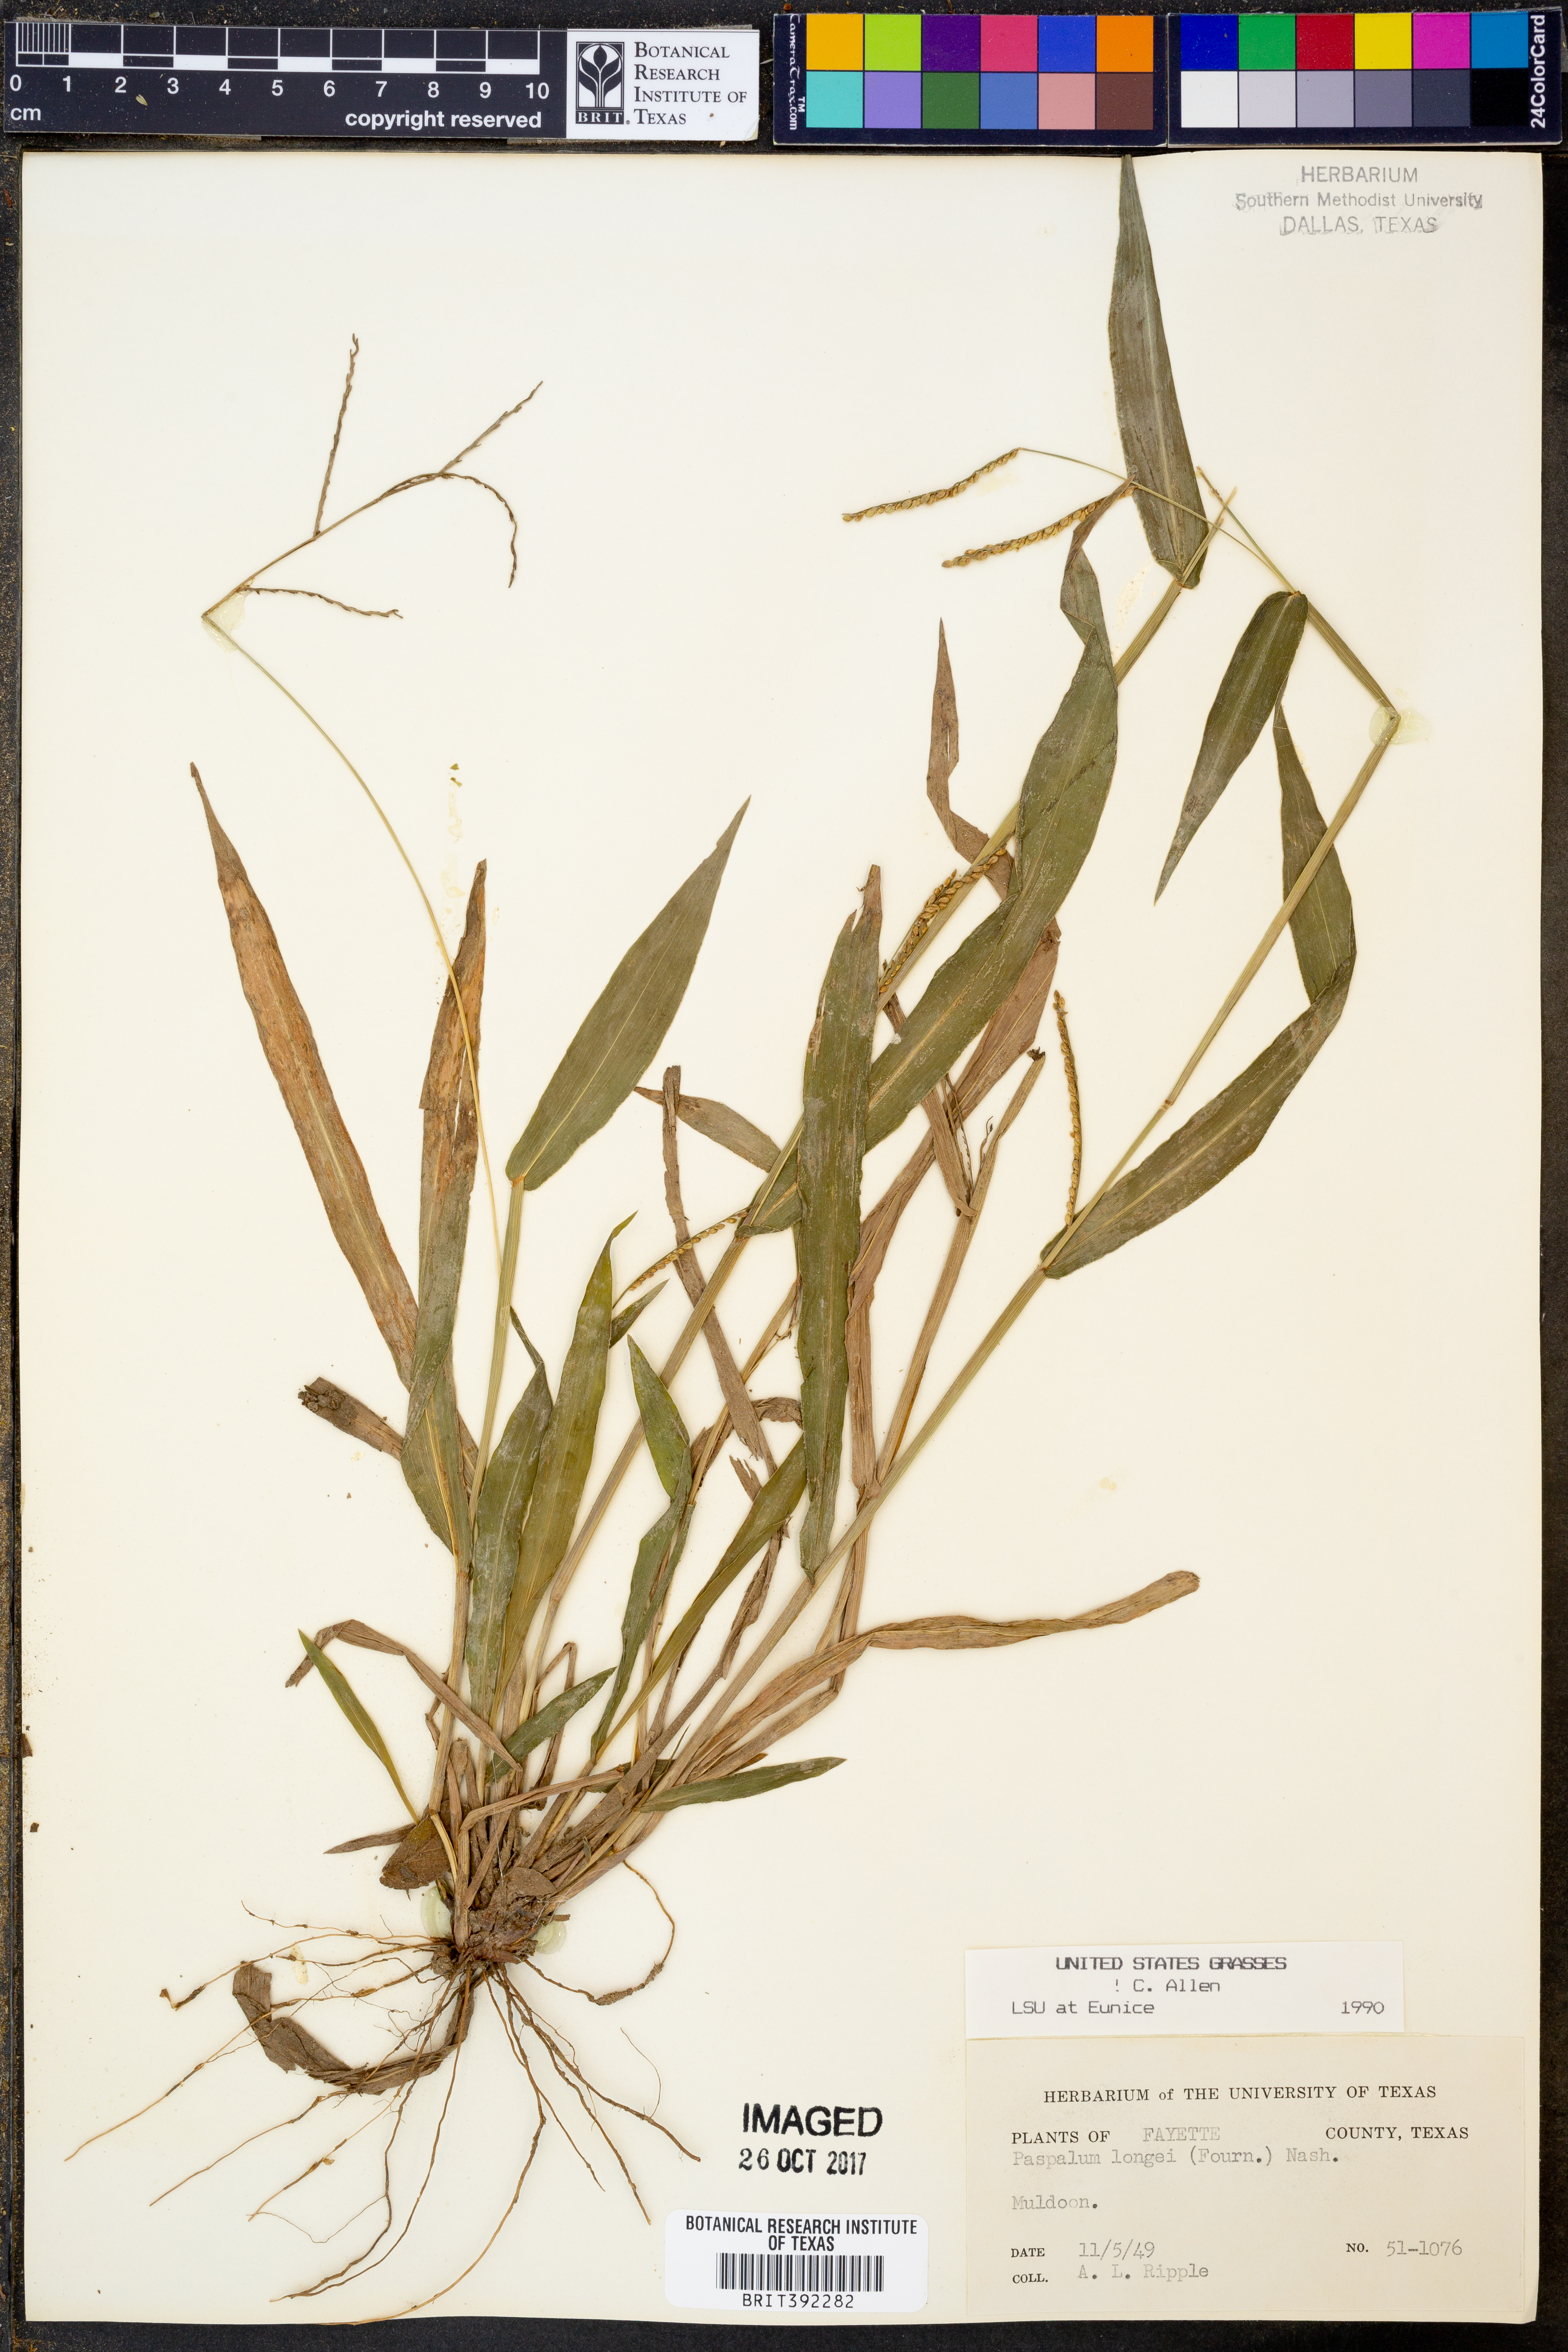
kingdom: Plantae
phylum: Tracheophyta
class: Liliopsida
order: Poales
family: Poaceae
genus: Paspalum
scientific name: Paspalum langei
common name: Rusty-seed paspalum
